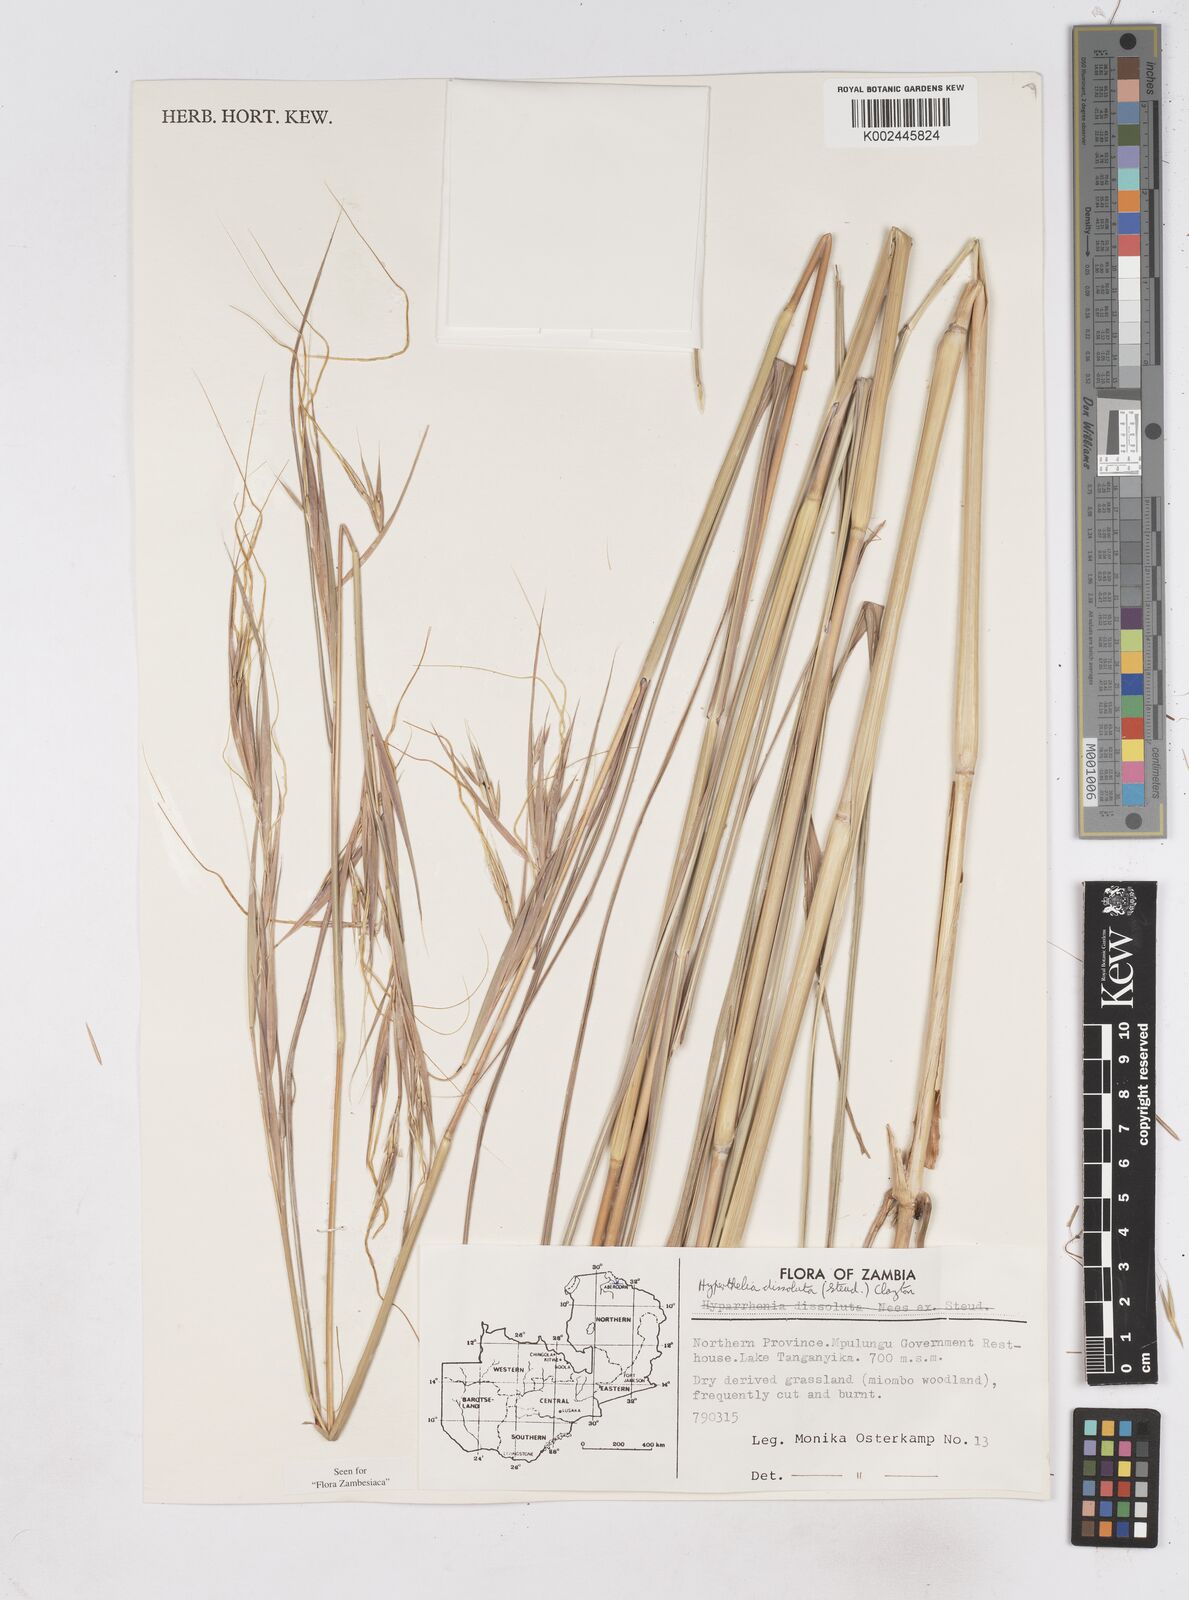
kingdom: Plantae
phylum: Tracheophyta
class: Liliopsida
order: Poales
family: Poaceae
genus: Hyperthelia
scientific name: Hyperthelia dissoluta
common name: Yellow thatching grass
